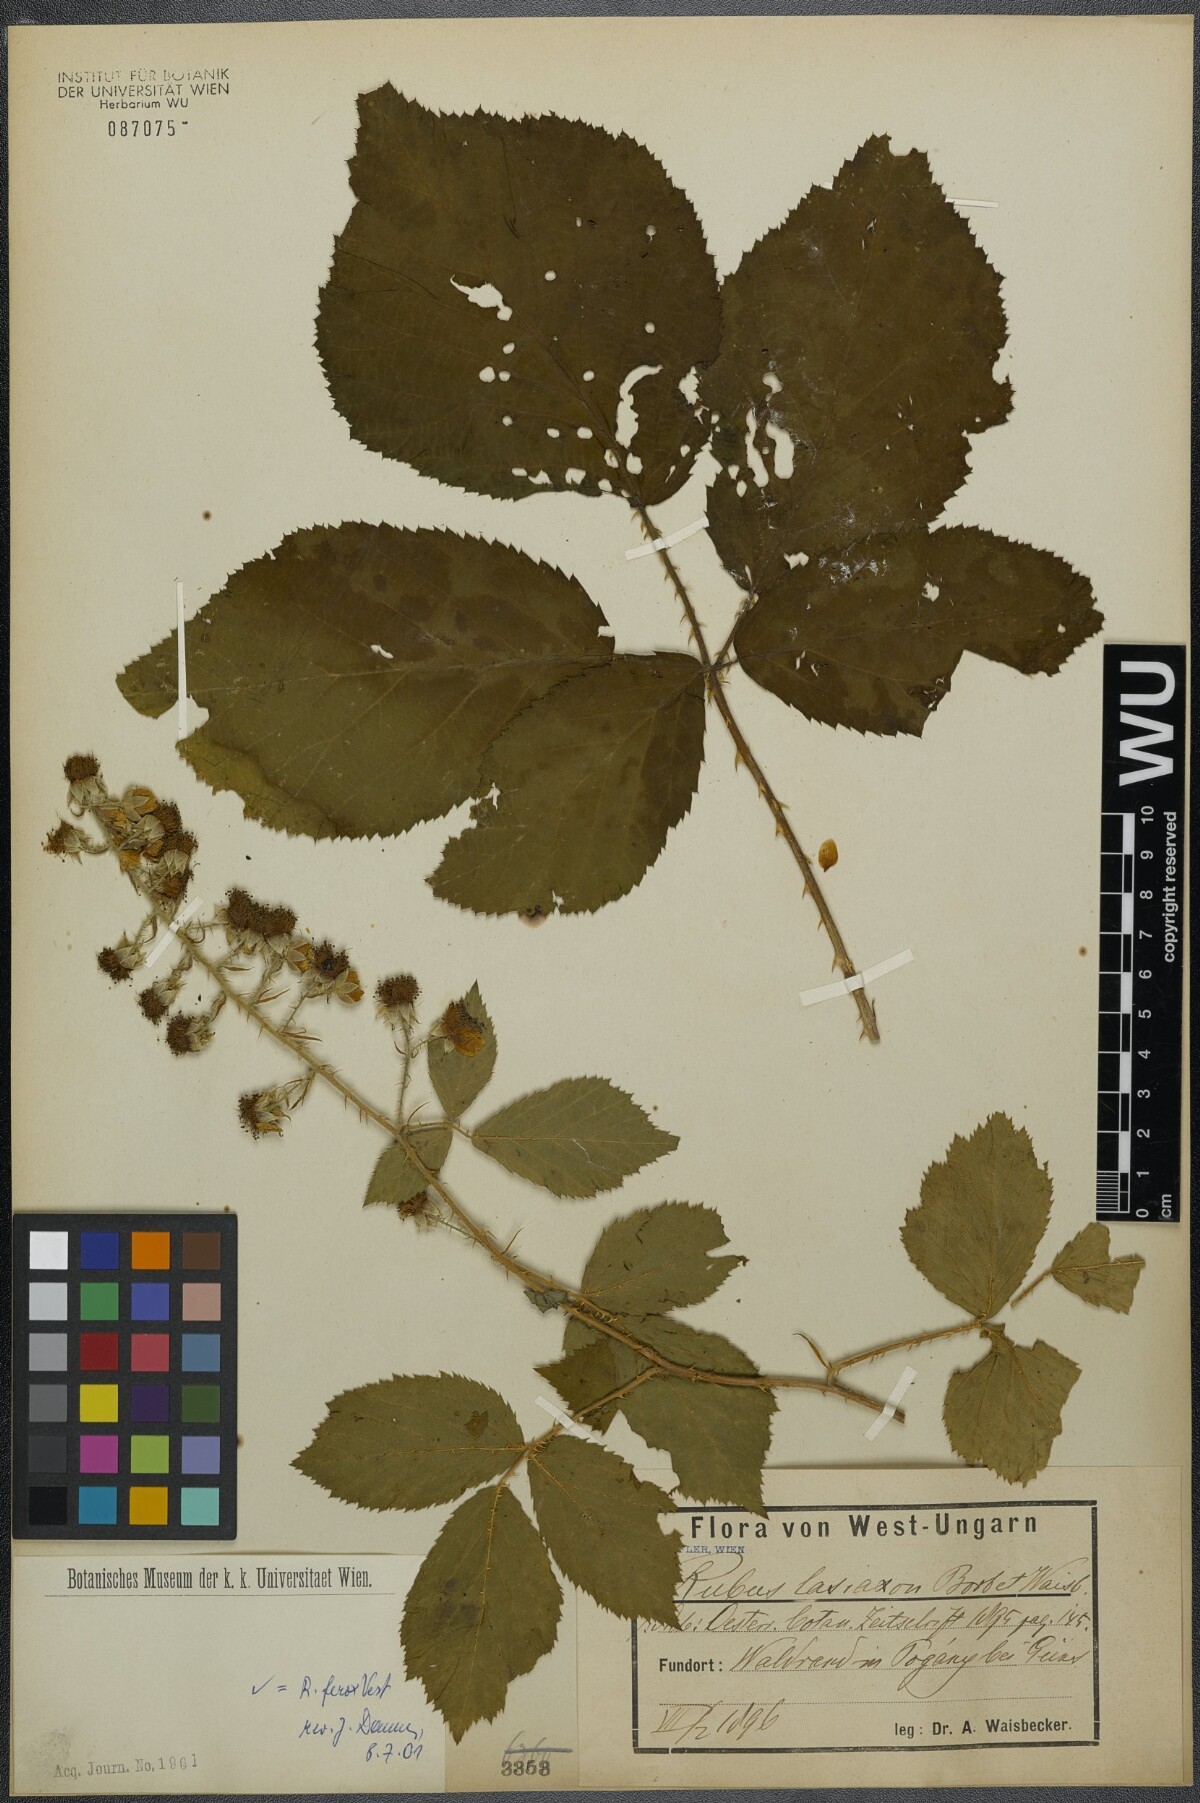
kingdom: Plantae
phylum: Tracheophyta
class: Magnoliopsida
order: Rosales
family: Rosaceae
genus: Rubus
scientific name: Rubus ferox
